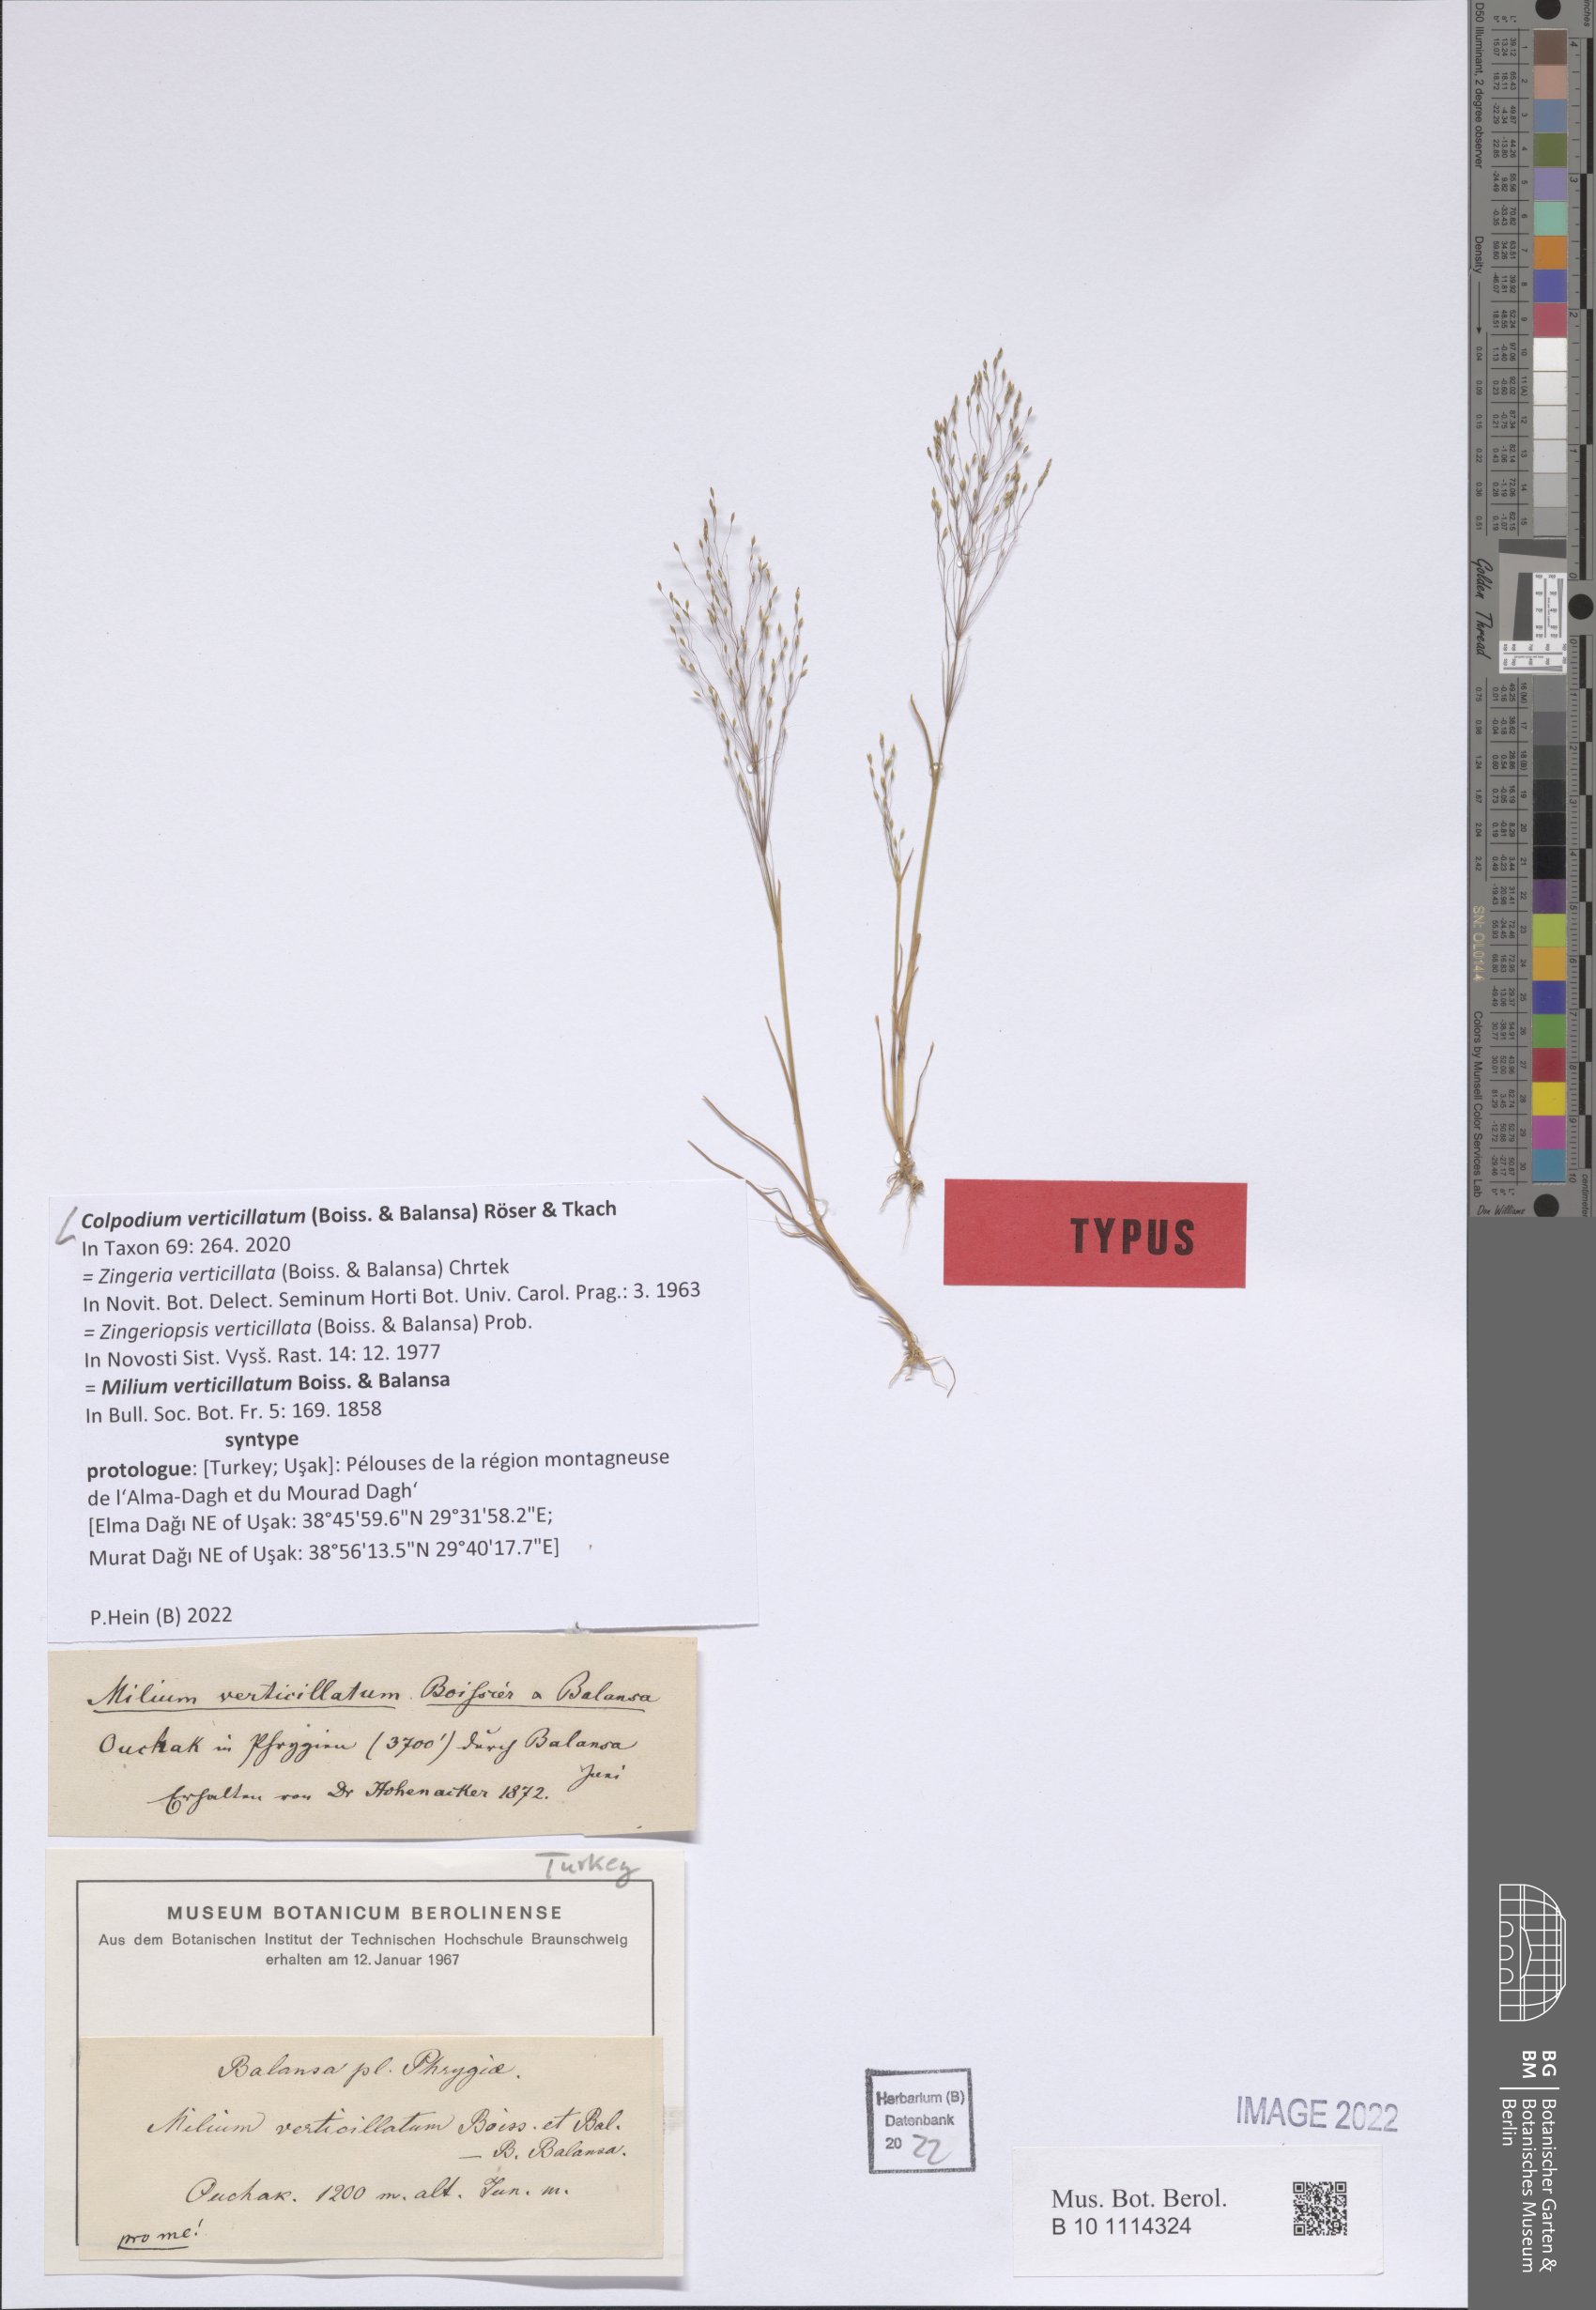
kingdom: Plantae
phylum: Tracheophyta
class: Liliopsida
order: Poales
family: Poaceae
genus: Colpodium
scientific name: Colpodium verticillatum
